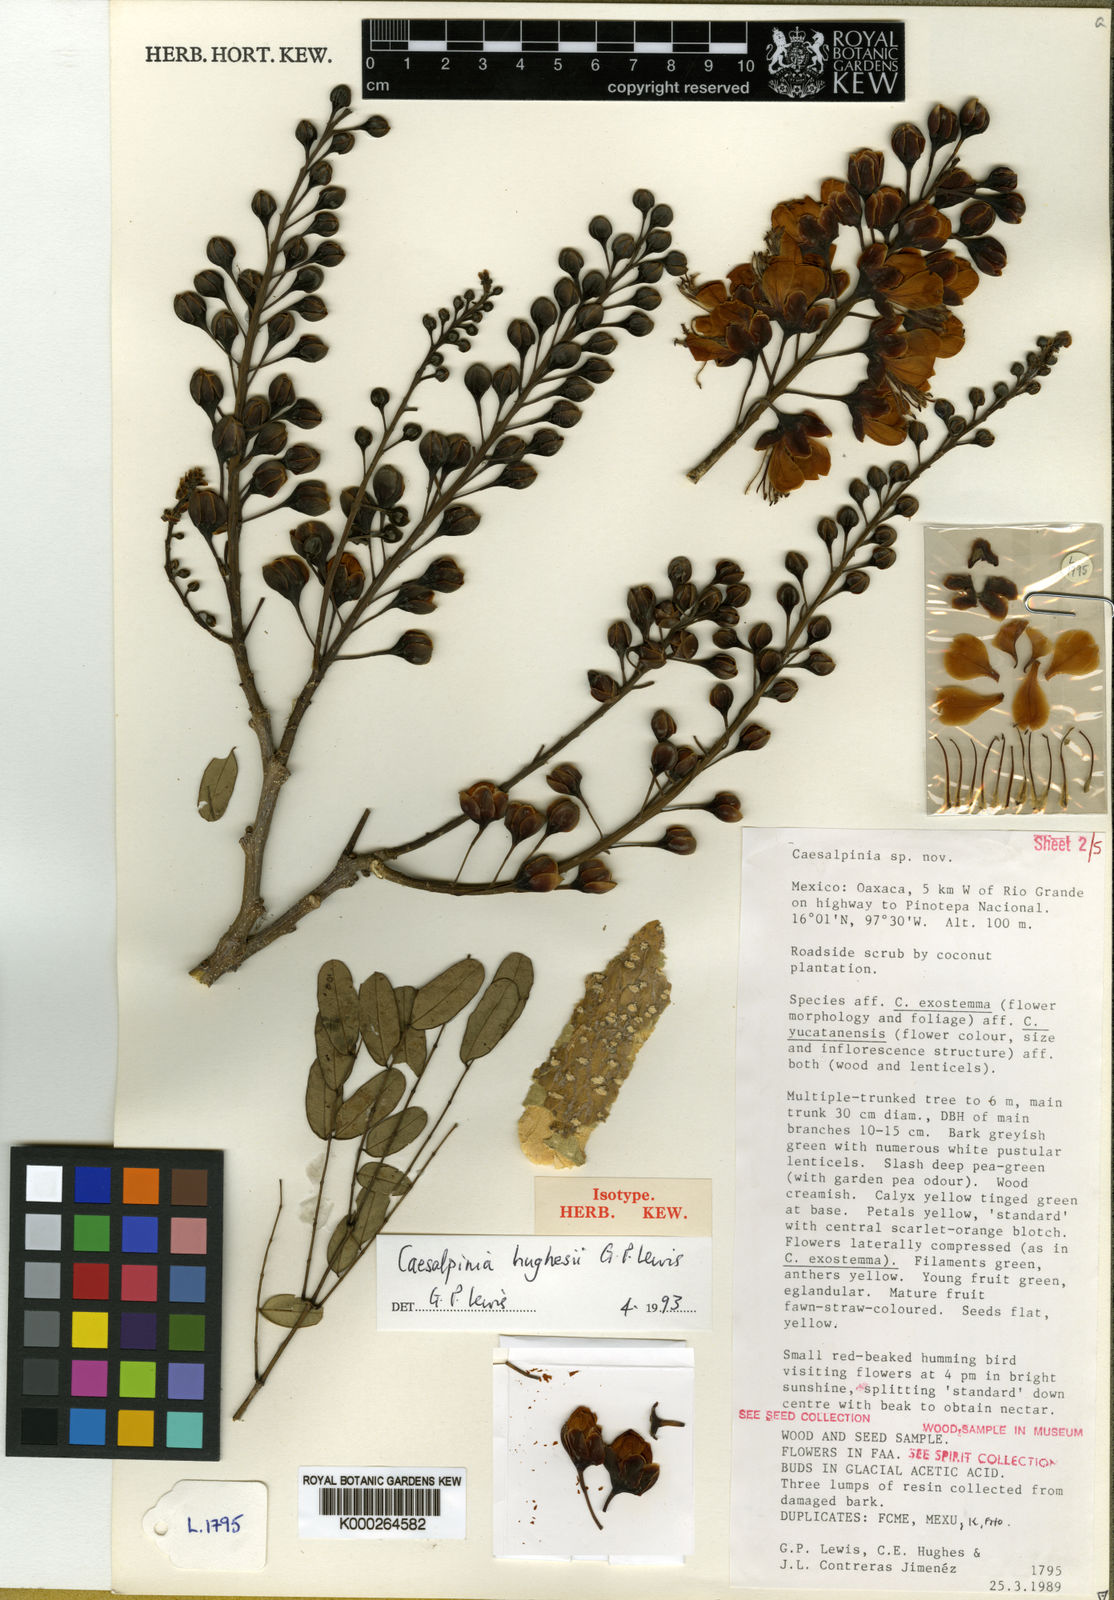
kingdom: Plantae
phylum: Tracheophyta
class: Magnoliopsida
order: Fabales
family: Fabaceae
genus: Erythrostemon
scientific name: Erythrostemon hughesii
